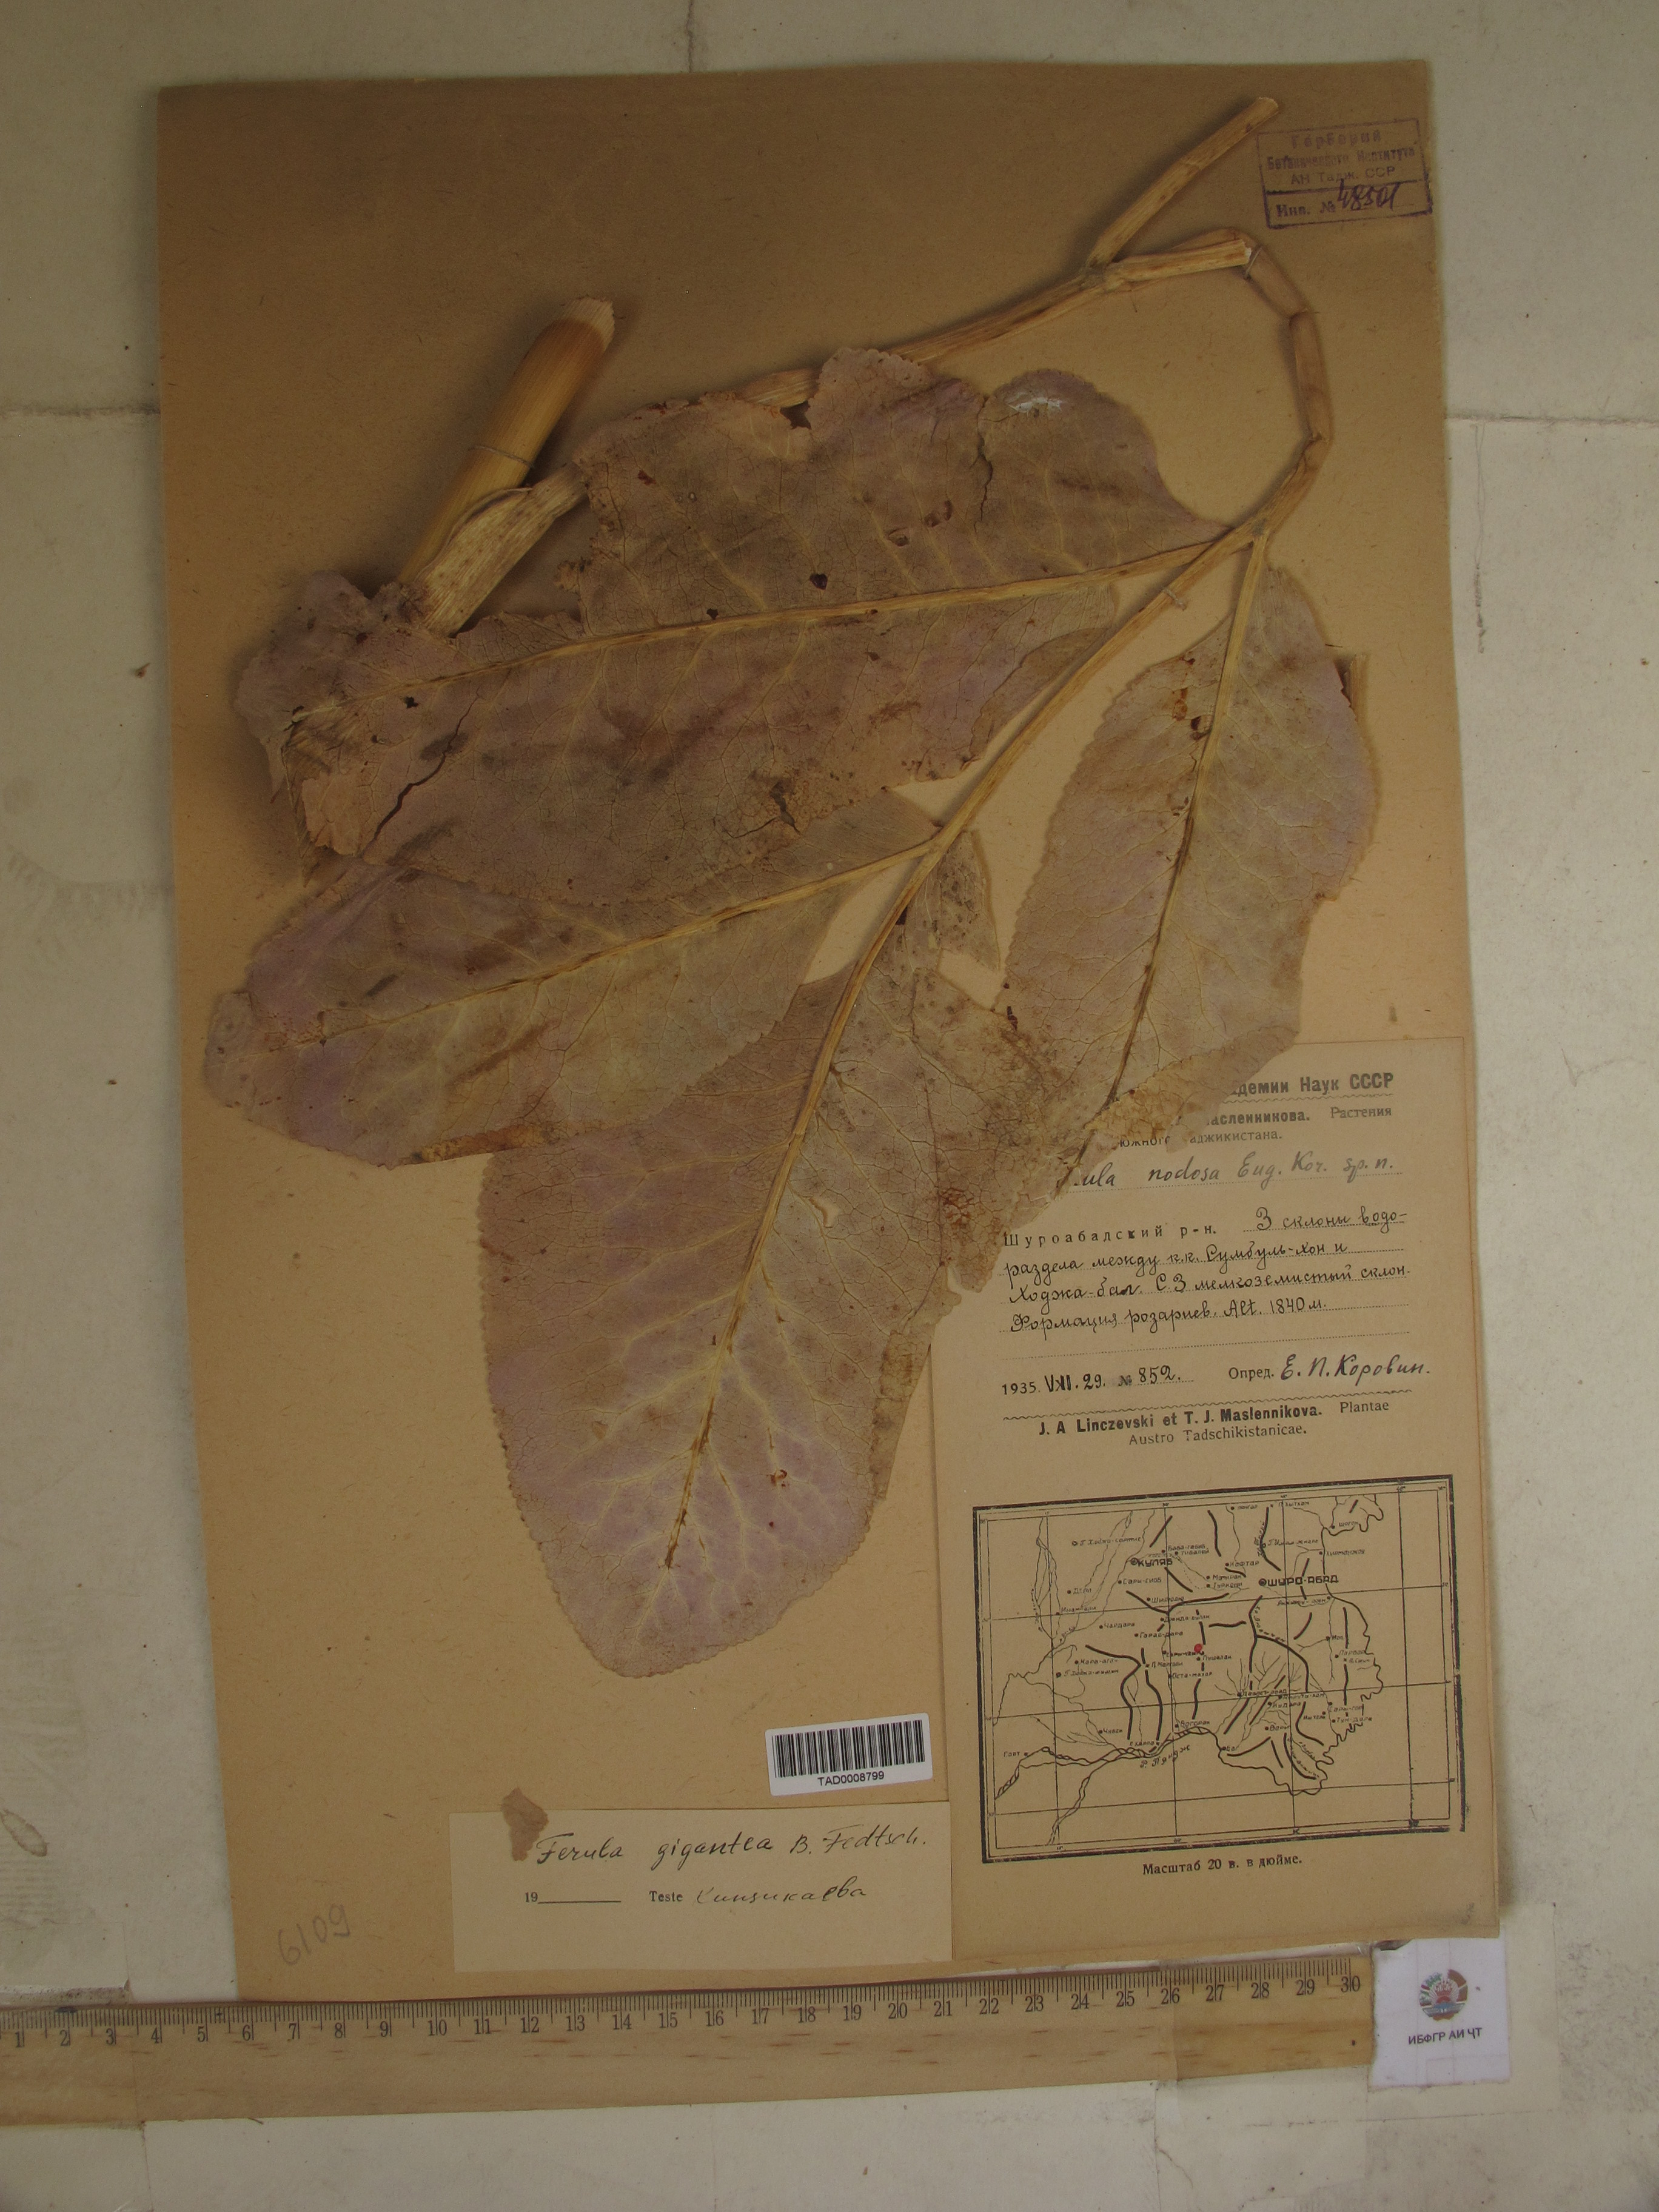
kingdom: Plantae
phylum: Tracheophyta
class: Magnoliopsida
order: Apiales
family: Apiaceae
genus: Ferula
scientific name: Ferula gigantea
